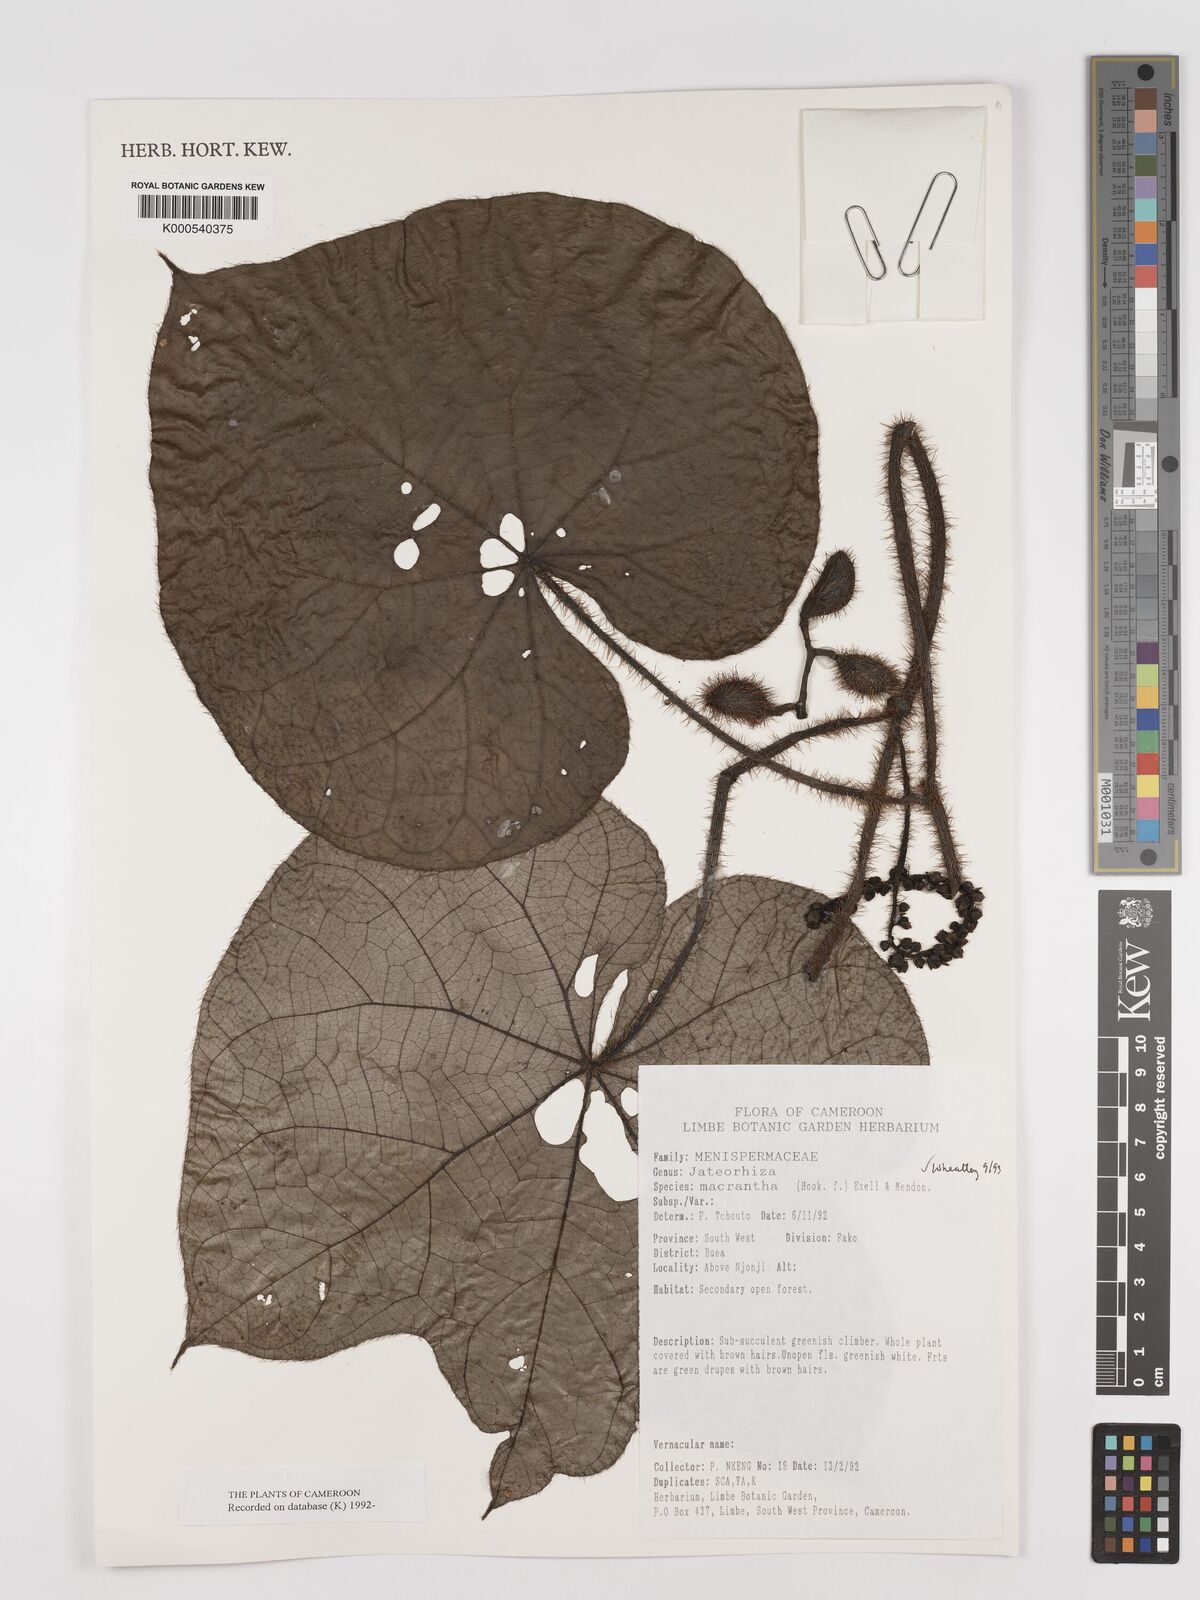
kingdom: Plantae
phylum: Tracheophyta
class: Magnoliopsida
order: Ranunculales
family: Menispermaceae
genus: Jateorhiza
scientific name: Jateorhiza
